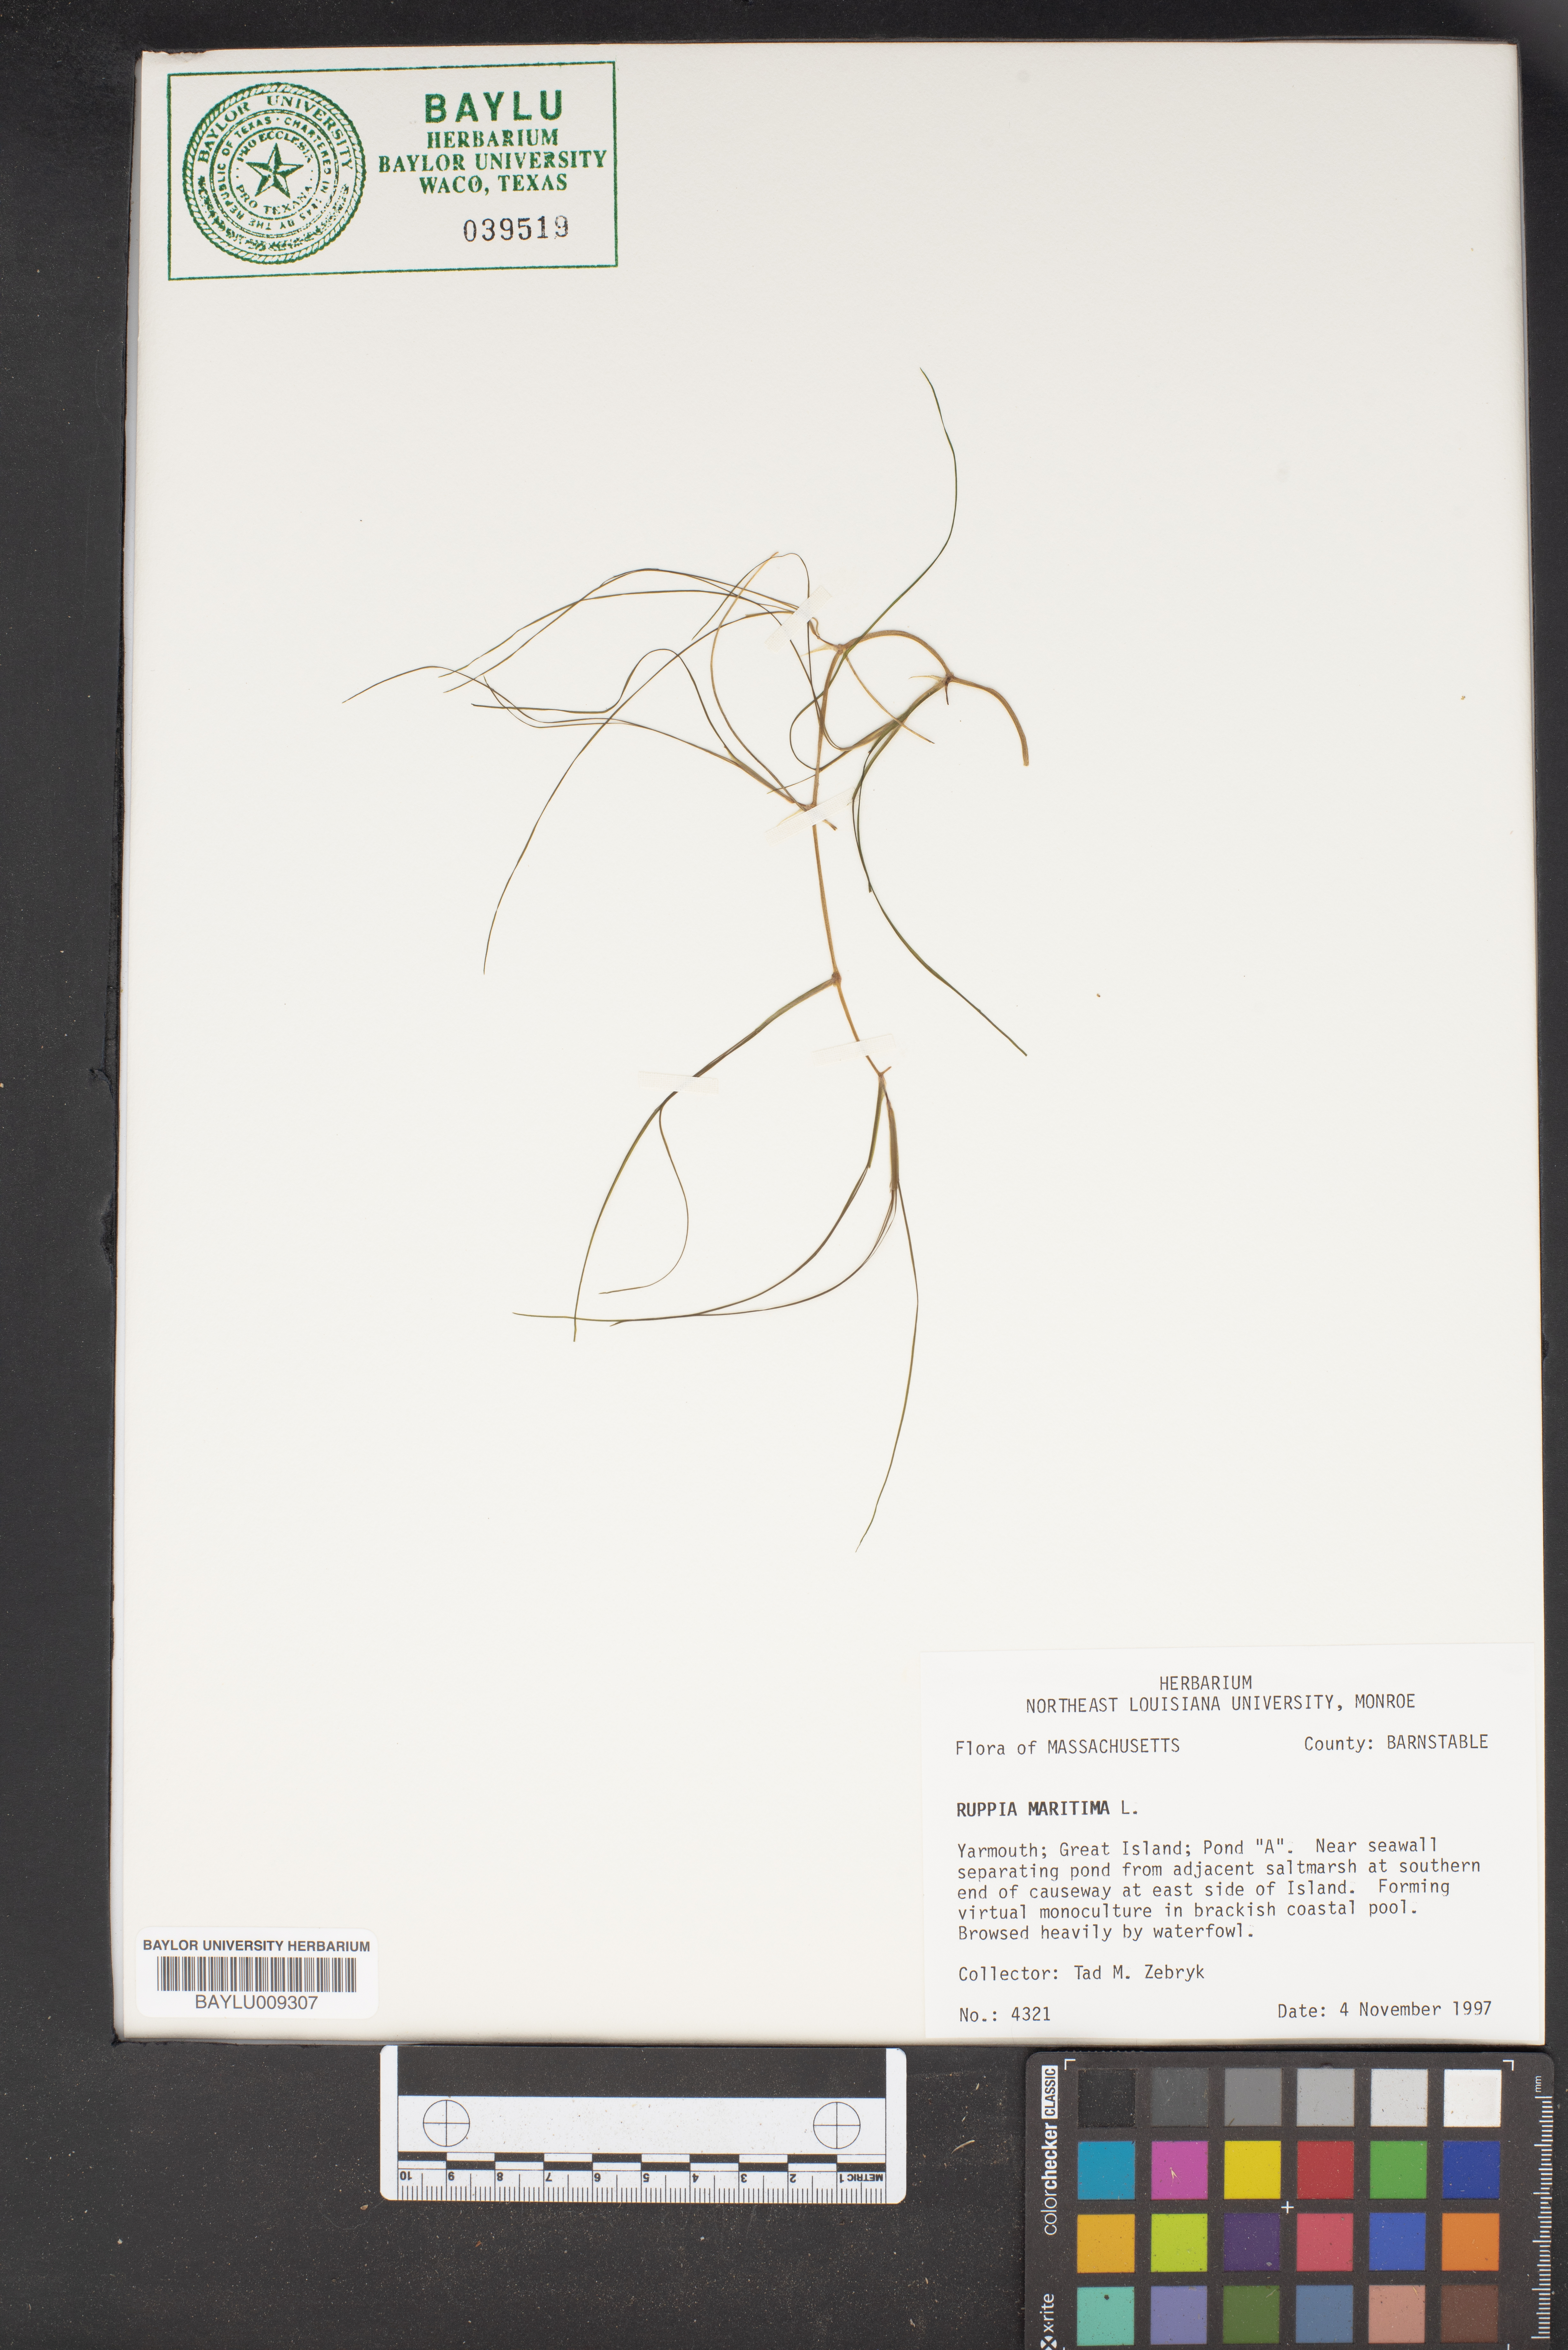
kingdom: Plantae
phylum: Tracheophyta
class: Liliopsida
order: Alismatales
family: Ruppiaceae
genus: Ruppia
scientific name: Ruppia maritima
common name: Beaked tasselweed
